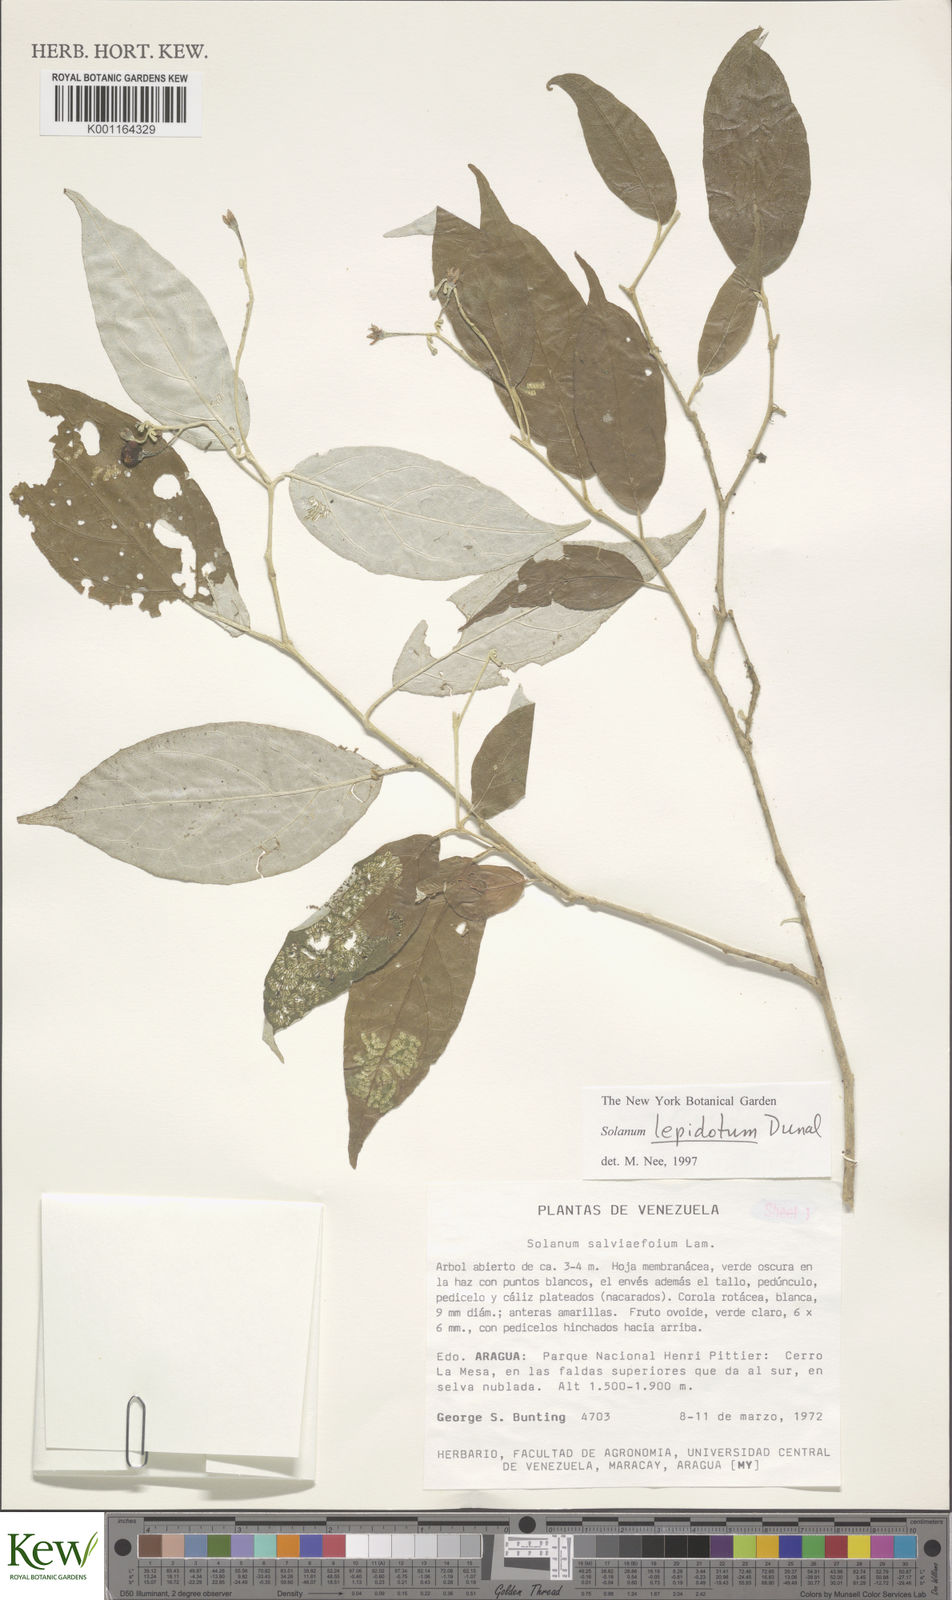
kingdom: Plantae
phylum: Tracheophyta
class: Magnoliopsida
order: Solanales
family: Solanaceae
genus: Solanum
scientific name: Solanum lepidotum
